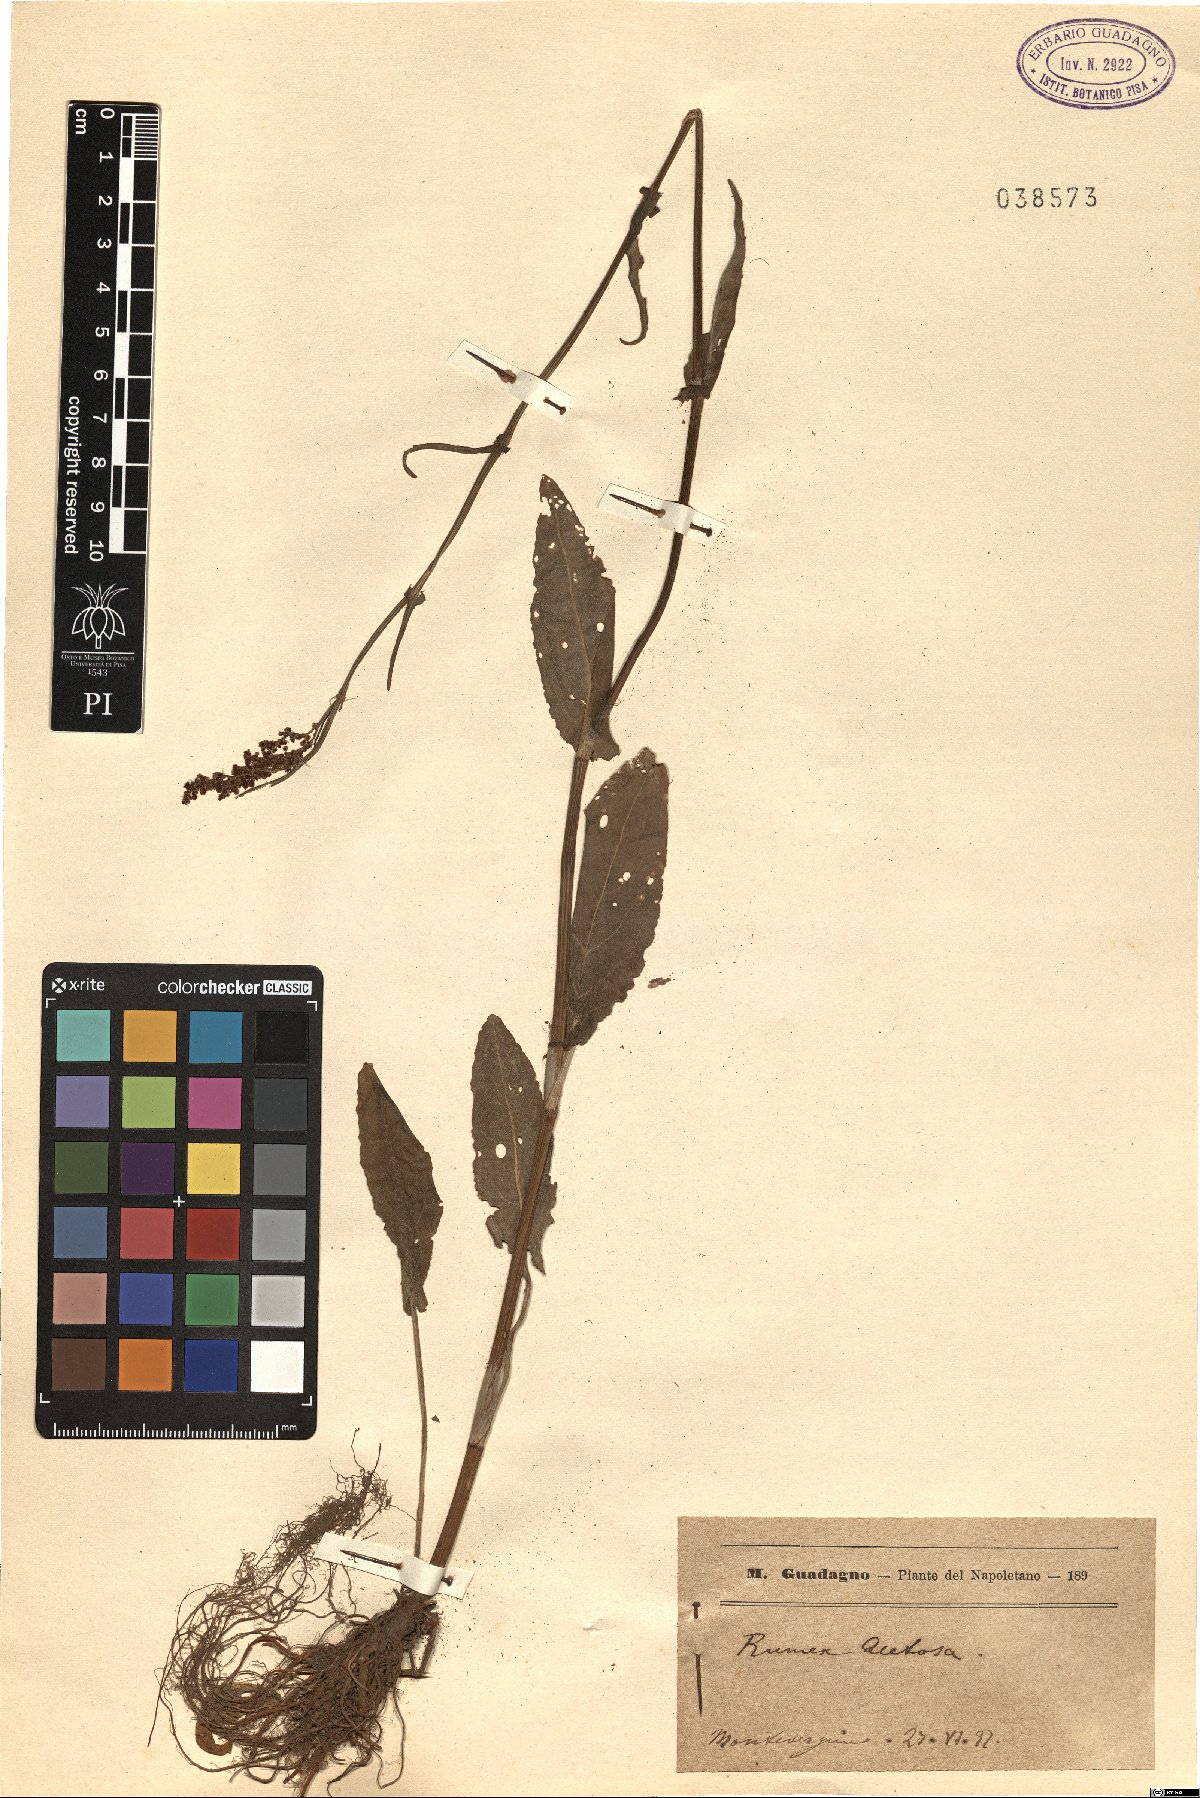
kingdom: Plantae
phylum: Tracheophyta
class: Magnoliopsida
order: Caryophyllales
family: Polygonaceae
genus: Rumex
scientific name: Rumex acetosa
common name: Garden sorrel
